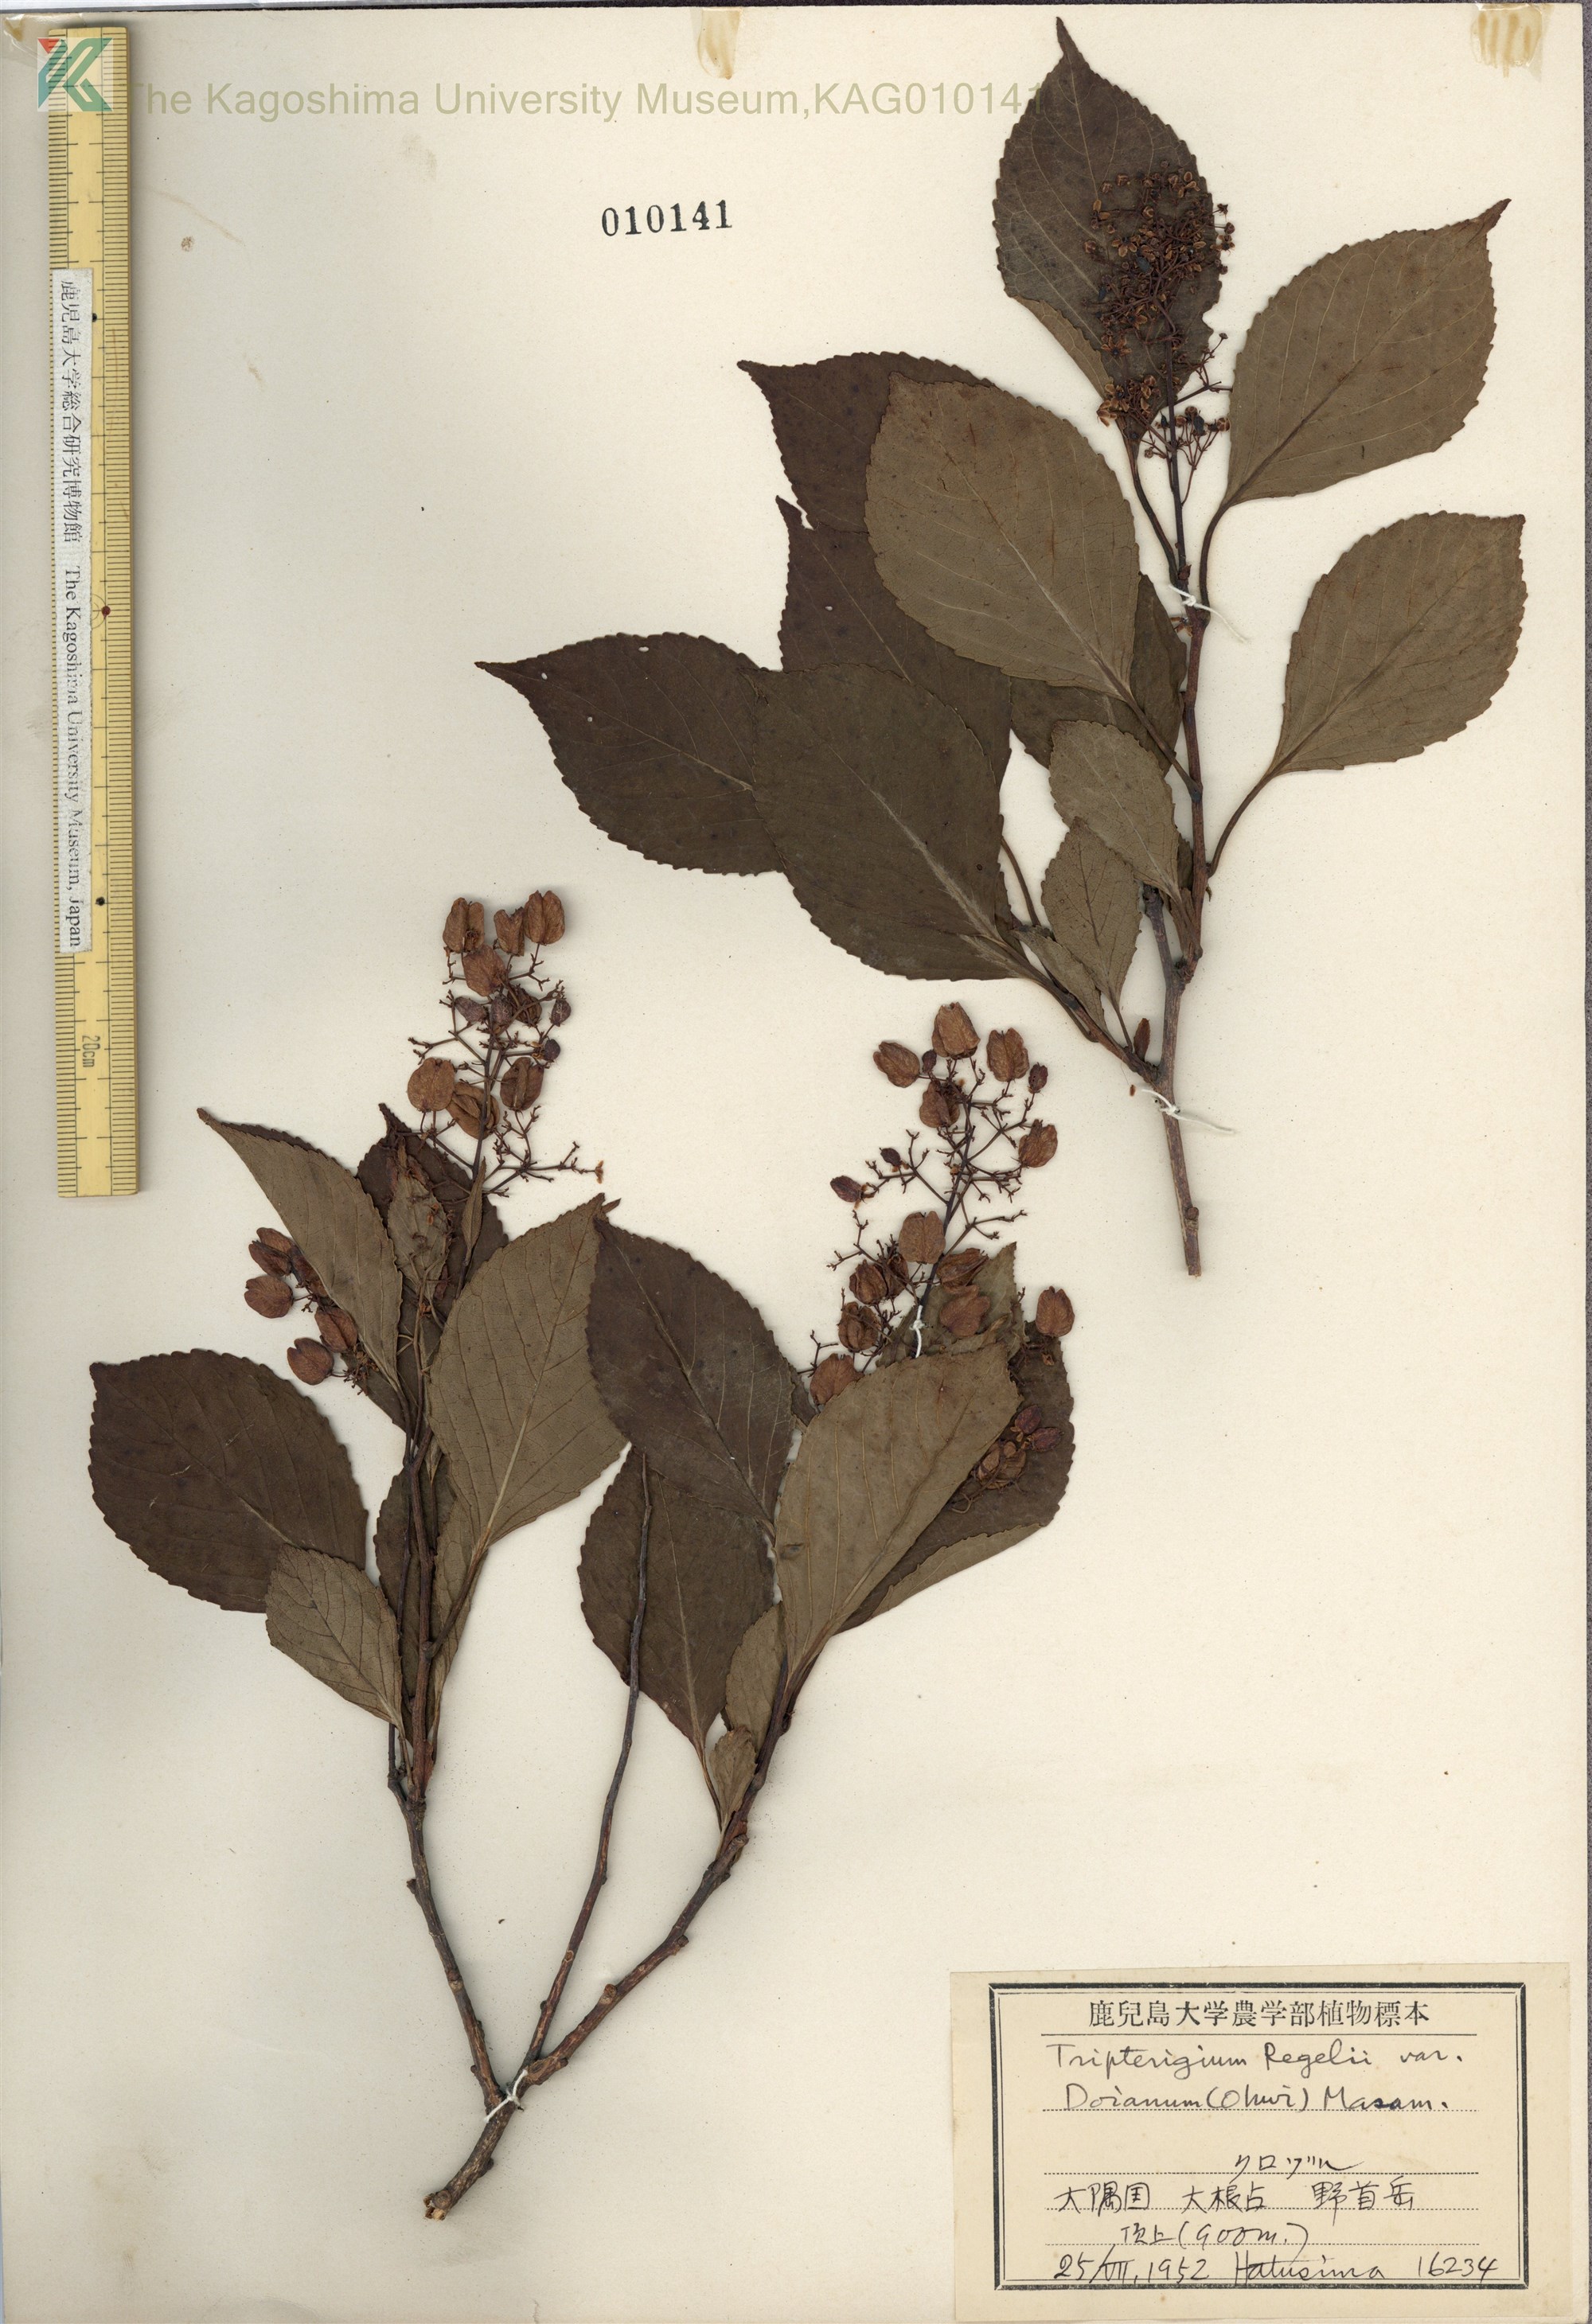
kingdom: Plantae
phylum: Tracheophyta
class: Magnoliopsida
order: Celastrales
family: Celastraceae
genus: Tripterygium
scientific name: Tripterygium doianum
